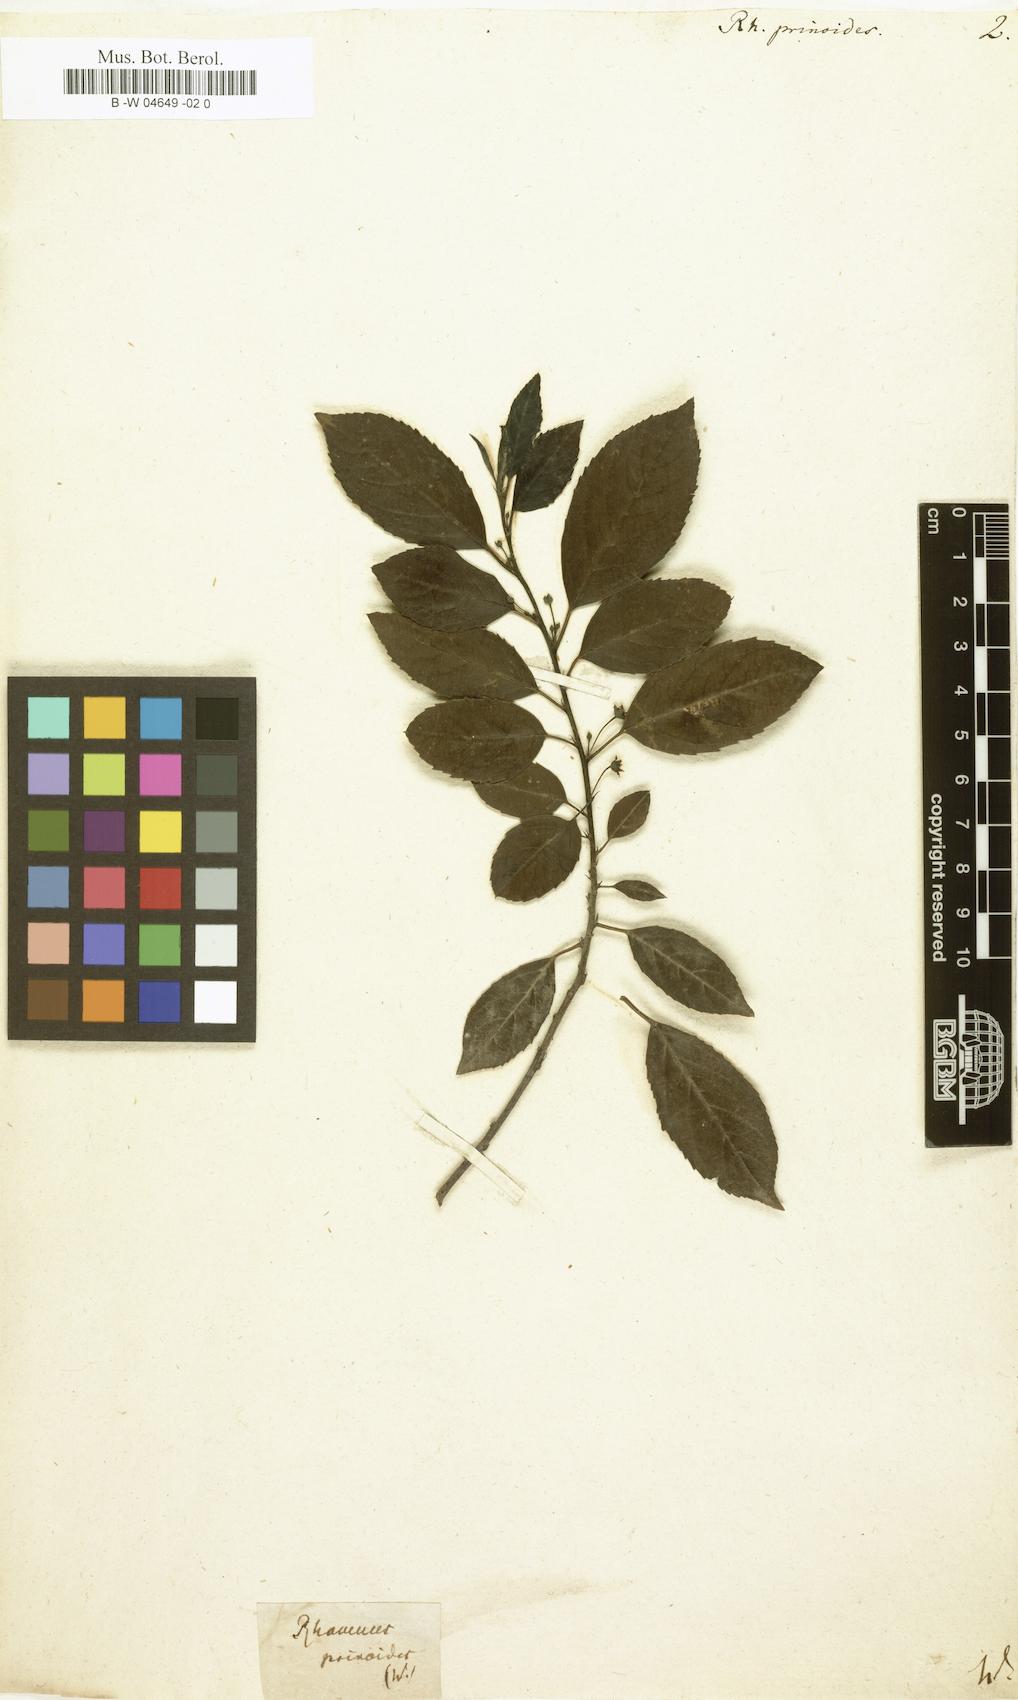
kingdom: Plantae
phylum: Tracheophyta
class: Magnoliopsida
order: Rosales
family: Rhamnaceae
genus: Rhamnus
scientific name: Rhamnus prinoides
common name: Dogwood
